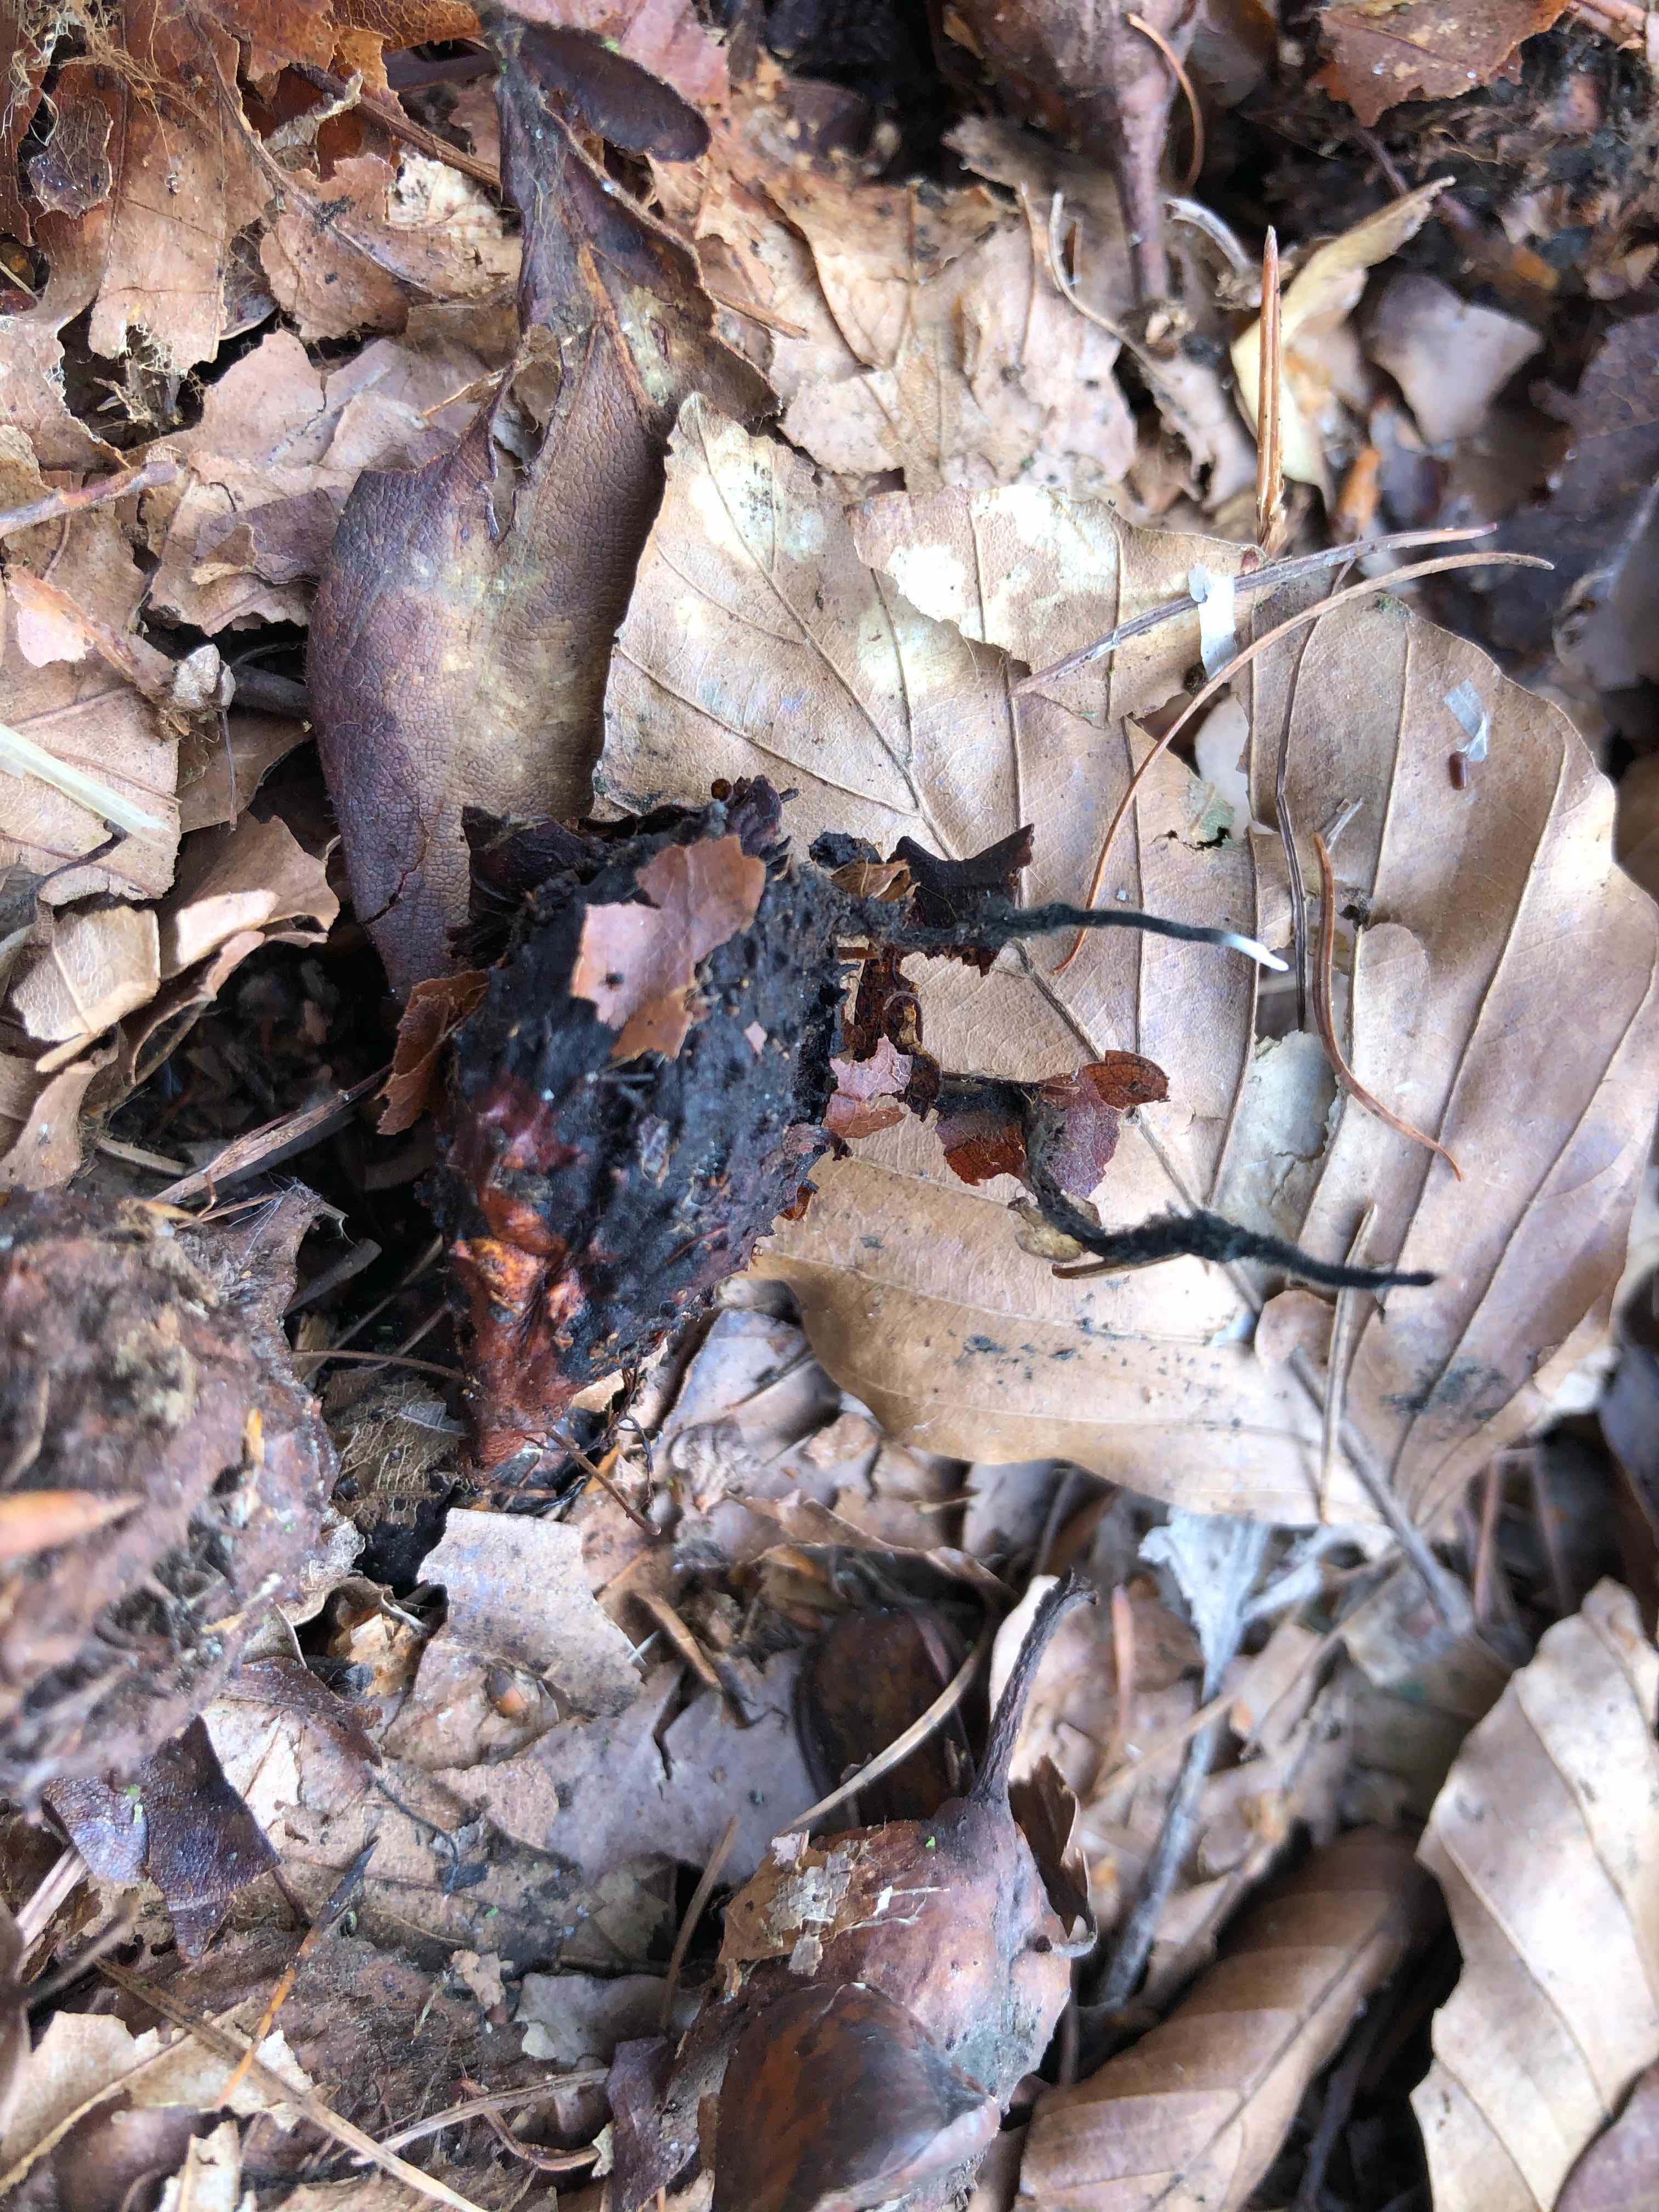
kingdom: Fungi
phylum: Ascomycota
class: Sordariomycetes
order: Xylariales
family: Xylariaceae
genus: Xylaria
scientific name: Xylaria carpophila
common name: bogskål-stødsvamp
